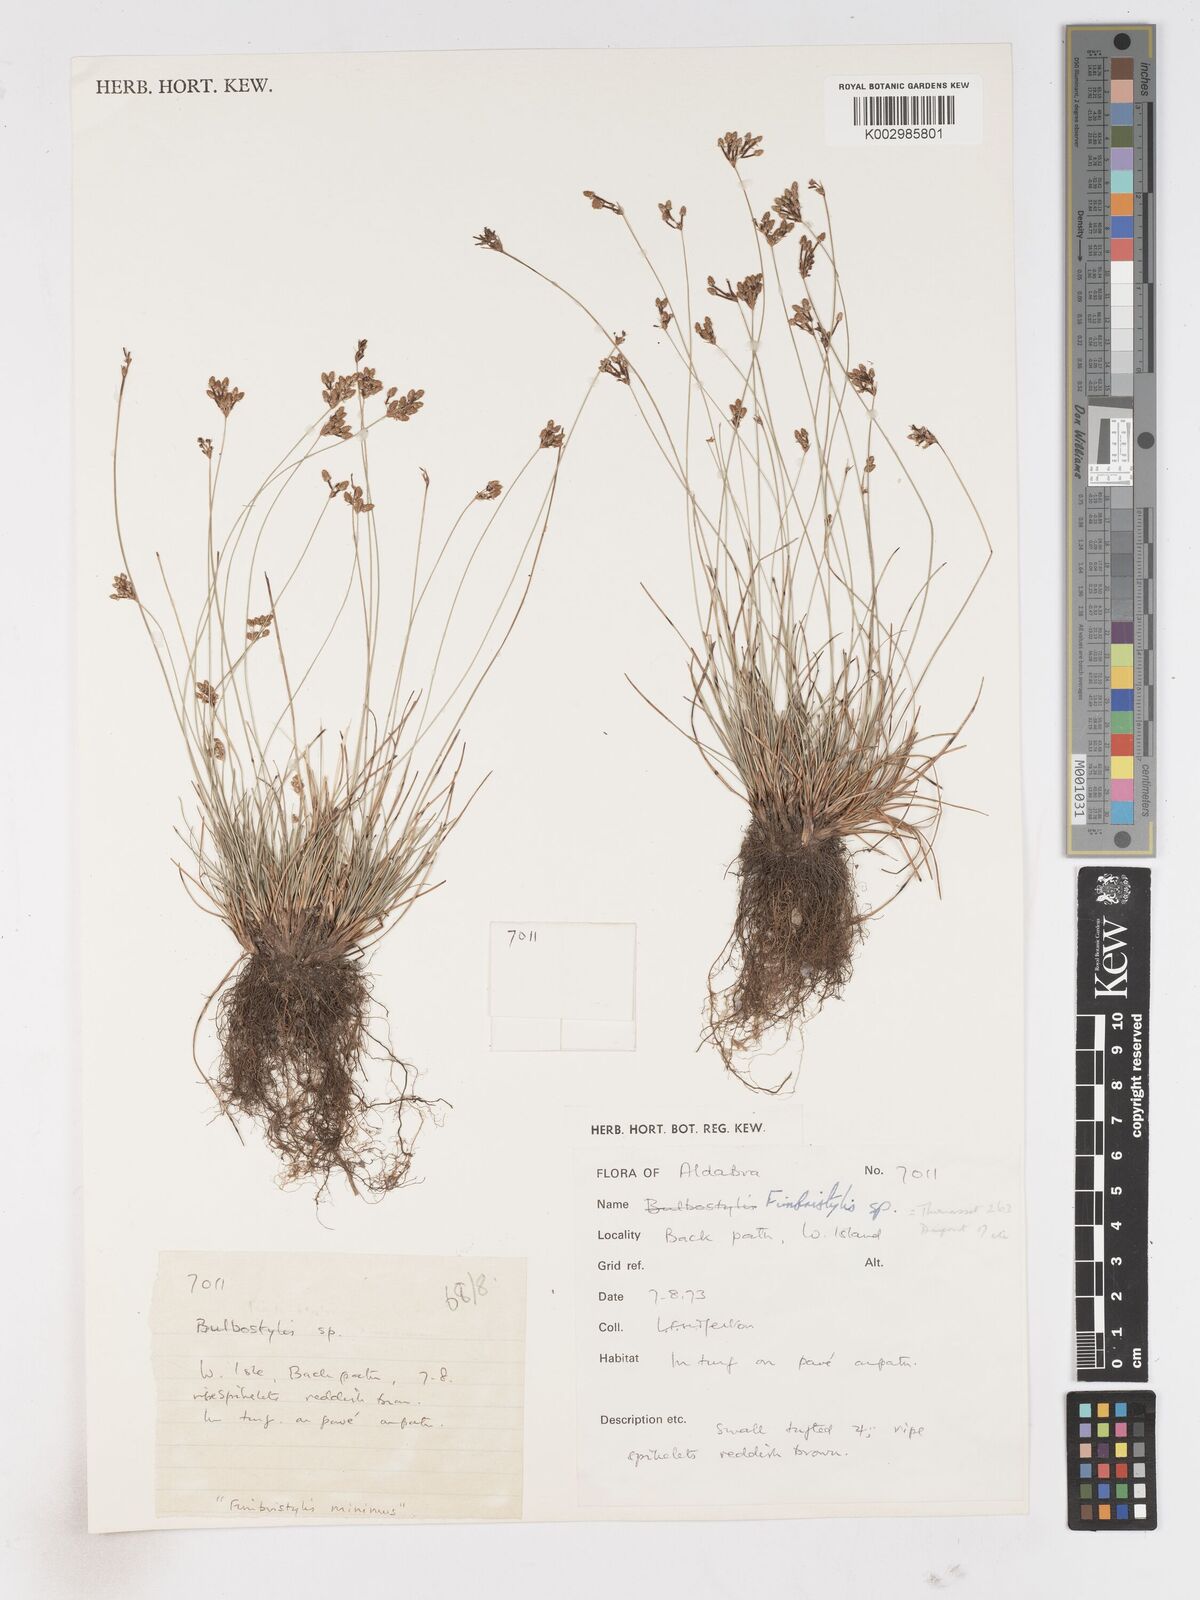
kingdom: Plantae
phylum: Tracheophyta
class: Liliopsida
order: Poales
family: Cyperaceae
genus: Fimbristylis
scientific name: Fimbristylis
